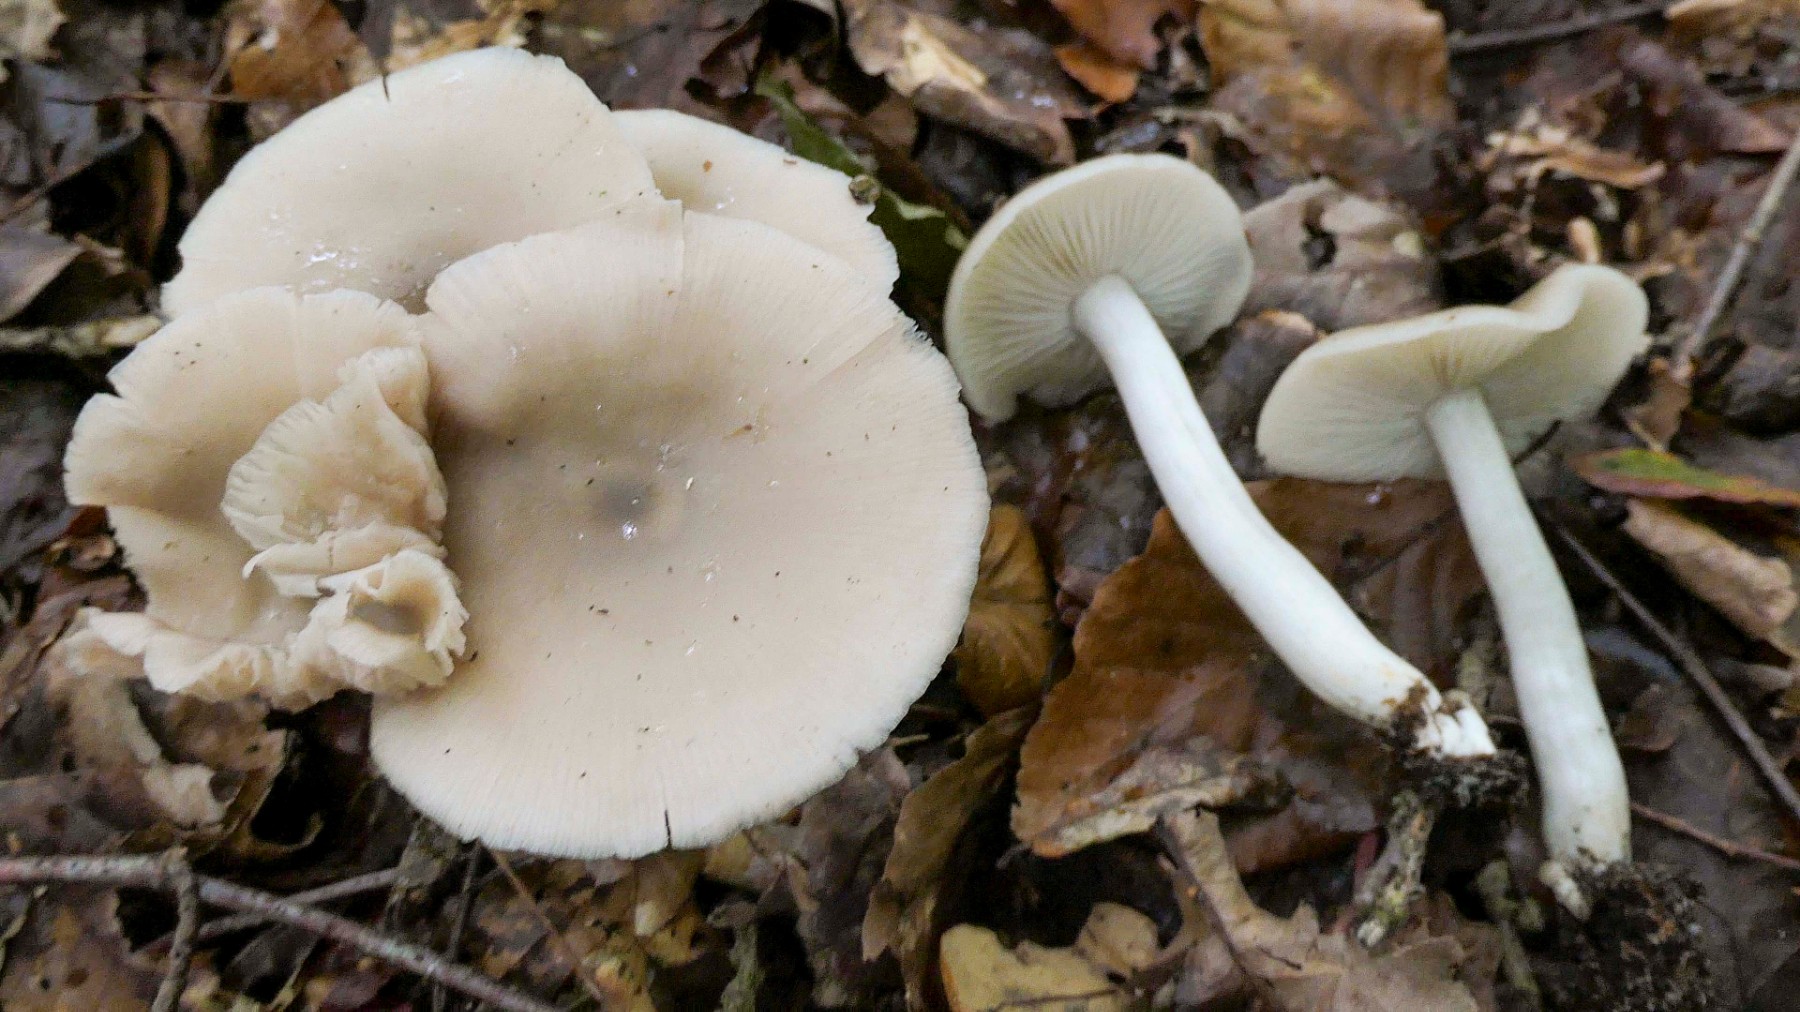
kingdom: Fungi
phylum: Basidiomycota
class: Agaricomycetes
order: Agaricales
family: Entolomataceae
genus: Entoloma
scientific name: Entoloma
